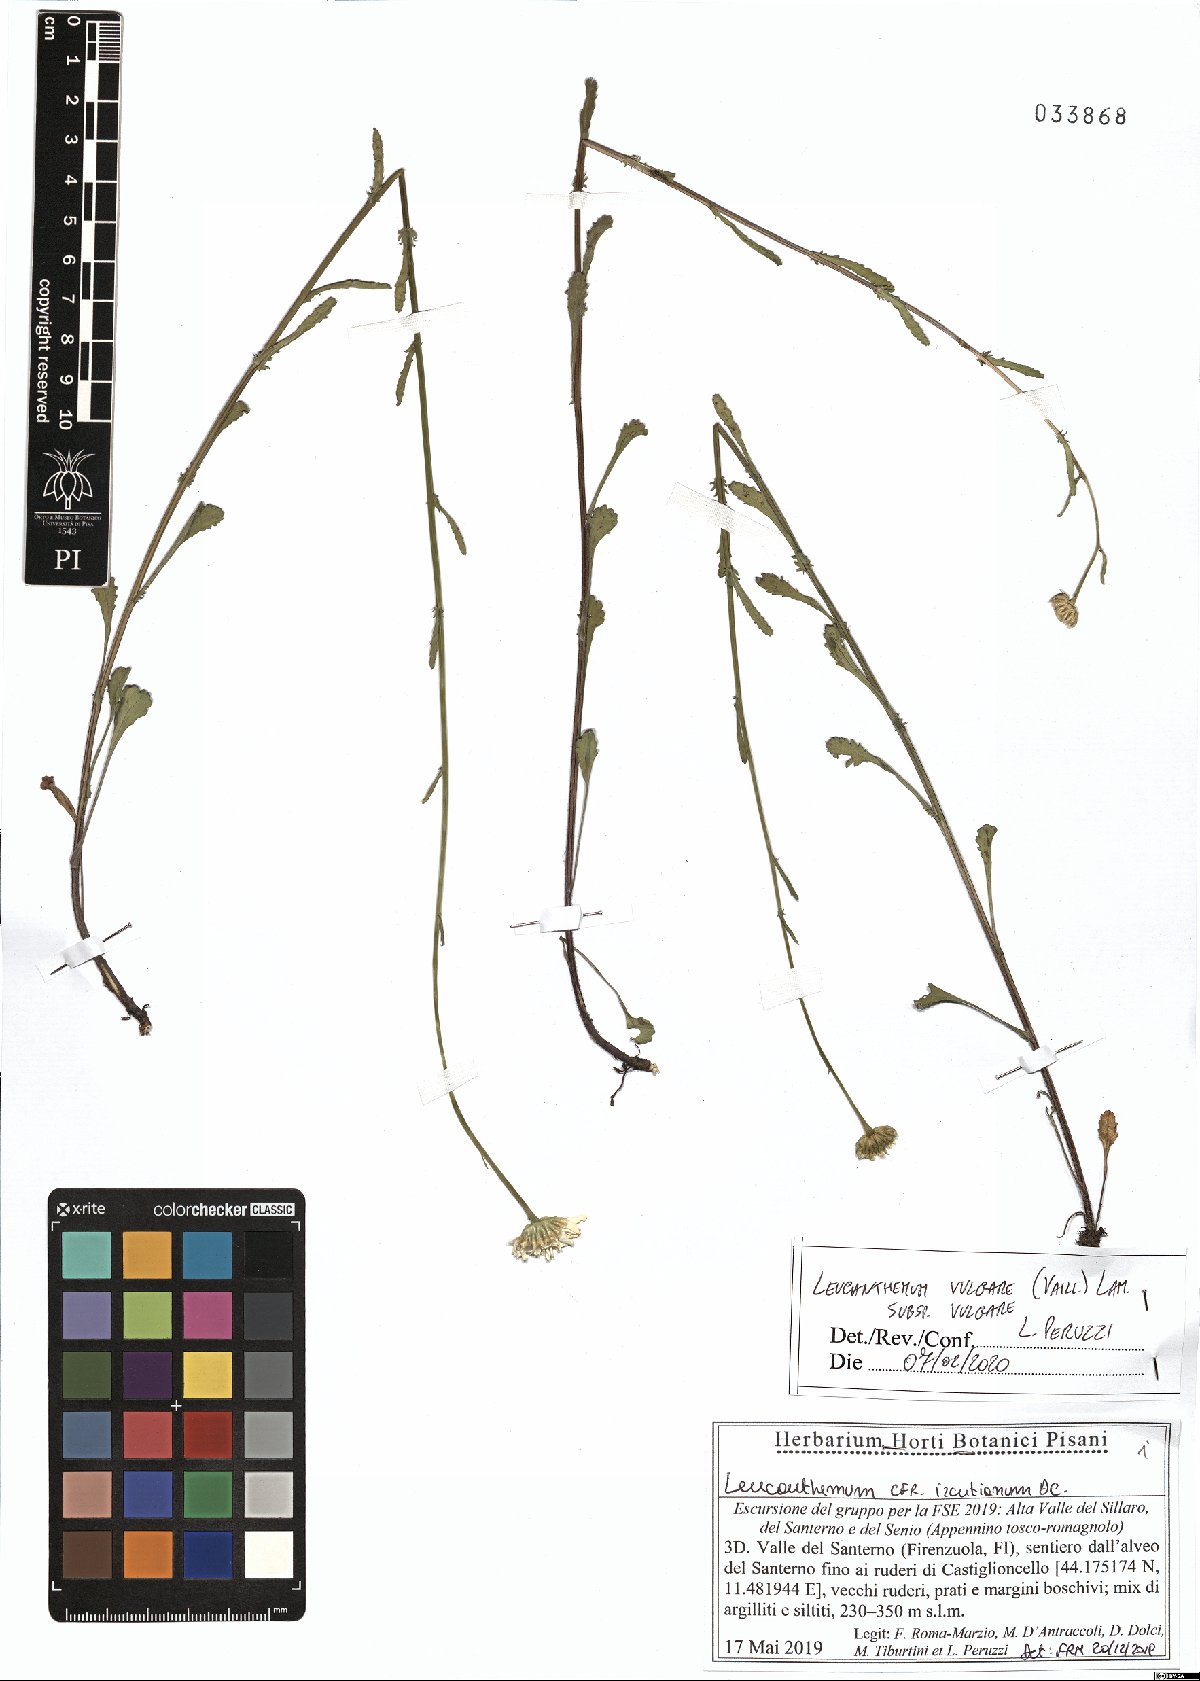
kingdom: Plantae
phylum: Tracheophyta
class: Magnoliopsida
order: Asterales
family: Asteraceae
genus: Leucanthemum
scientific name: Leucanthemum vulgare
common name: Oxeye daisy
